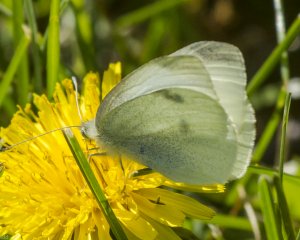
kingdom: Animalia
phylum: Arthropoda
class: Insecta
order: Lepidoptera
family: Pieridae
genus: Pieris
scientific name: Pieris rapae
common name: Cabbage White
